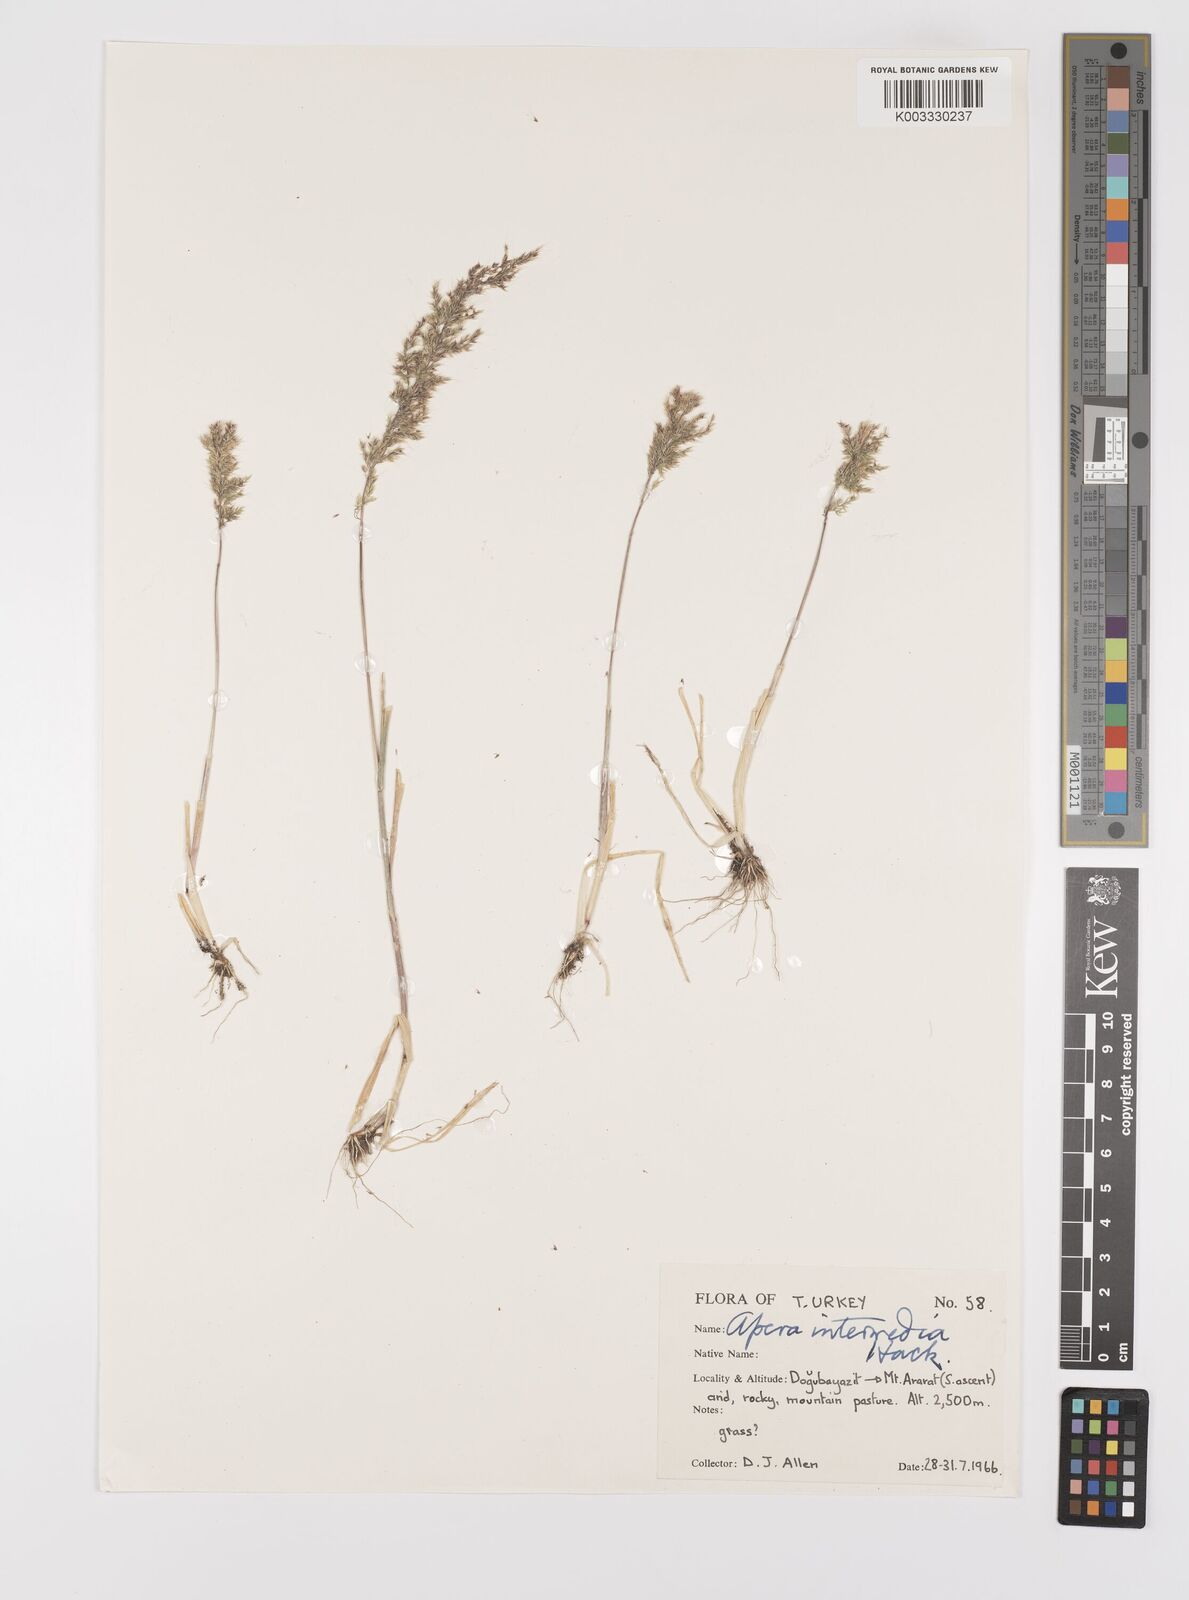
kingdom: Plantae
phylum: Tracheophyta
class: Liliopsida
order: Poales
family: Poaceae
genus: Apera
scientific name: Apera intermedia
